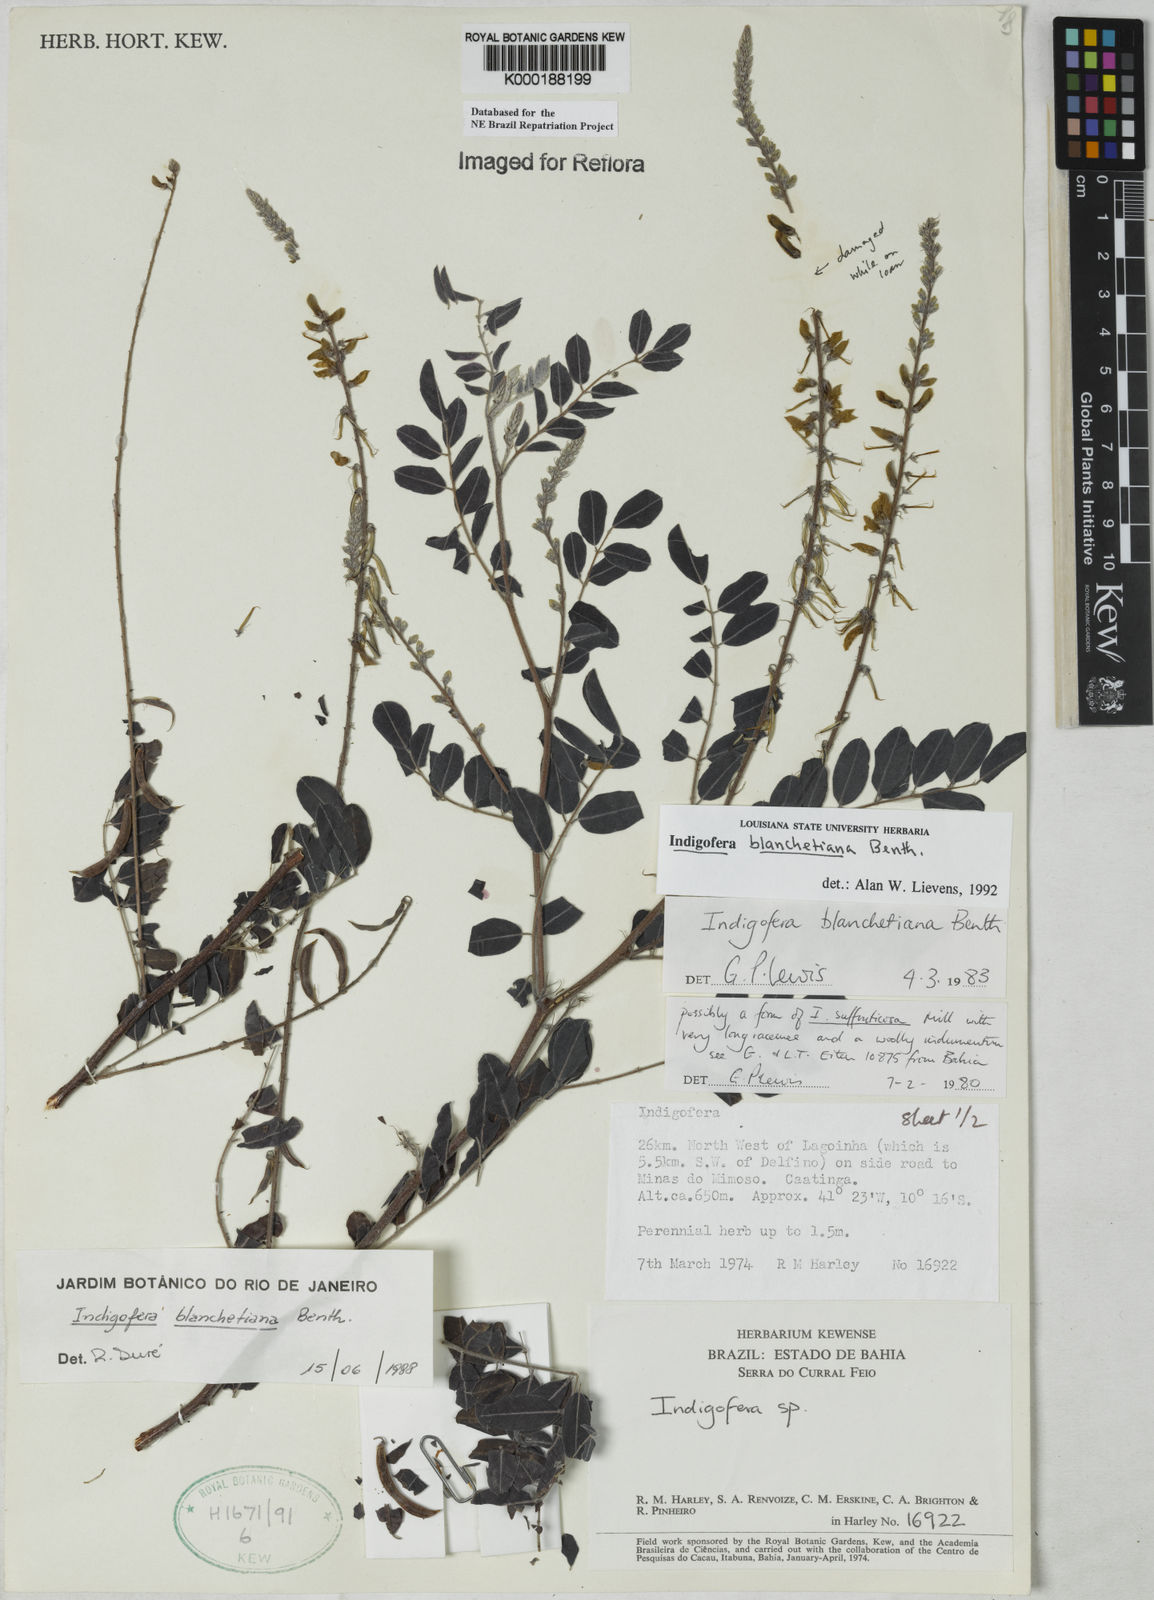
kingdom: Plantae
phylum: Tracheophyta
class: Magnoliopsida
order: Fabales
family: Fabaceae
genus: Indigofera
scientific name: Indigofera blanchetiana
